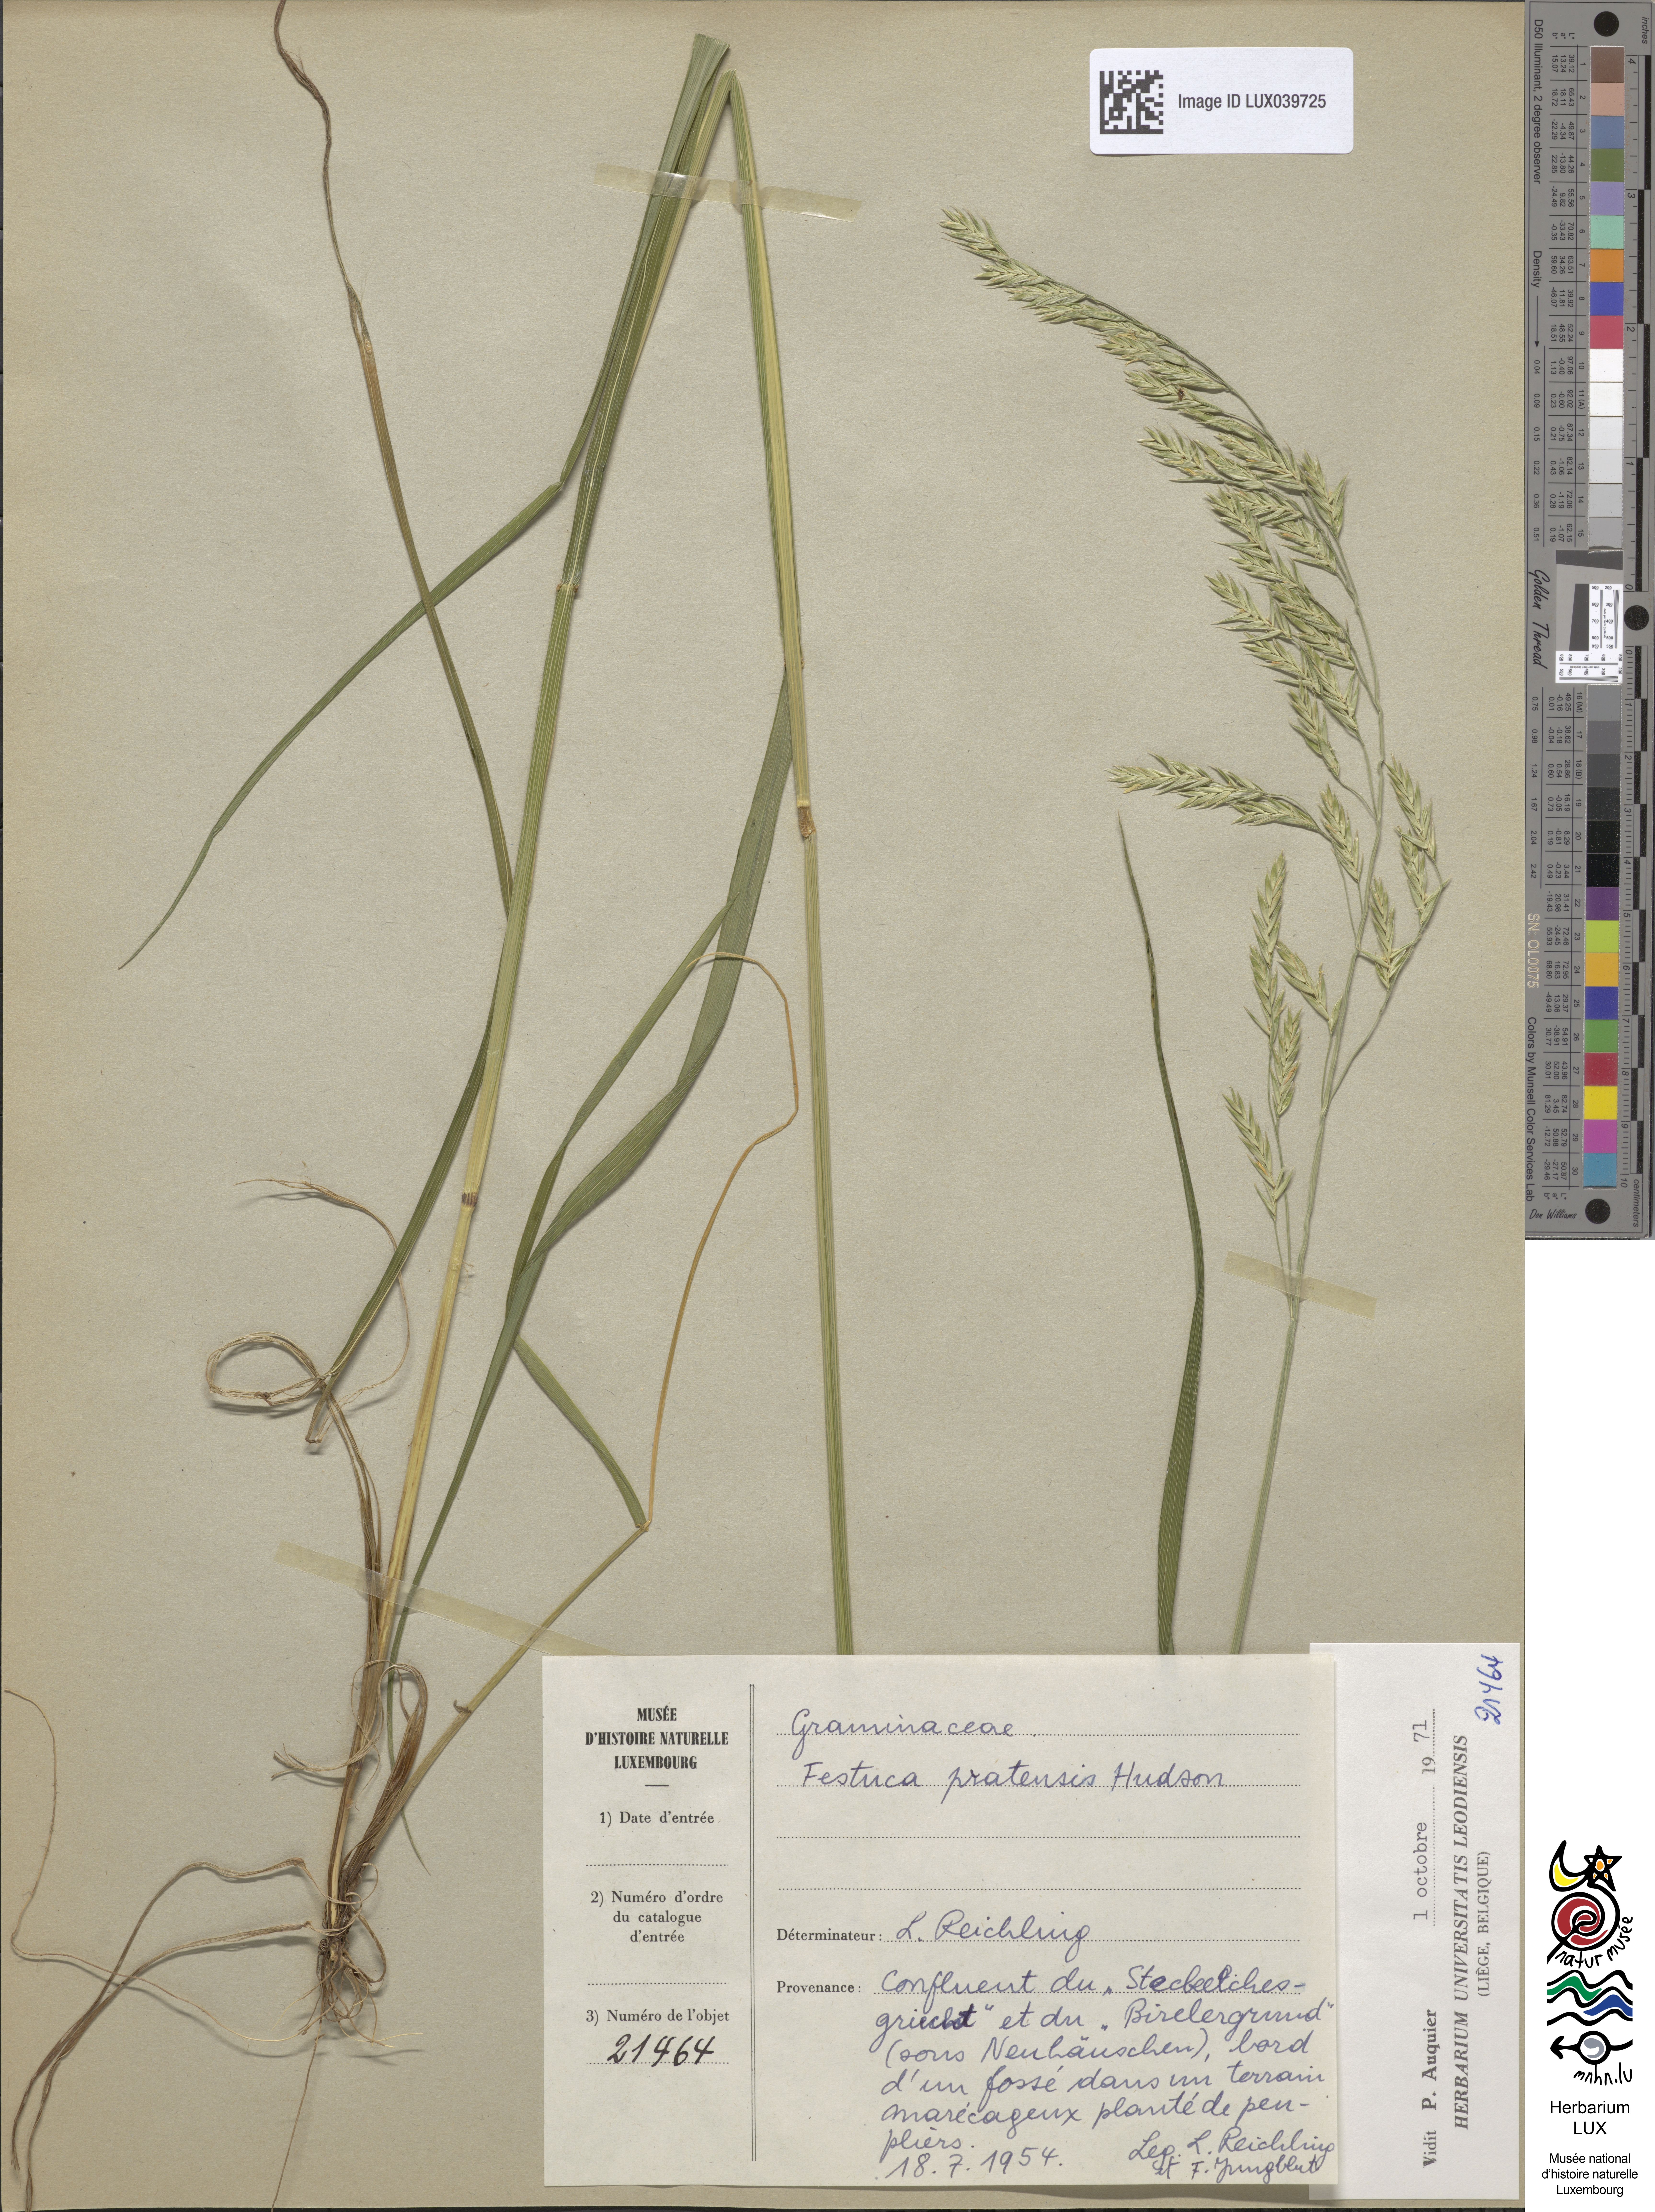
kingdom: Plantae
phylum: Tracheophyta
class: Liliopsida
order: Poales
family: Poaceae
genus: Lolium
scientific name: Lolium arundinaceum
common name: Reed fescue
